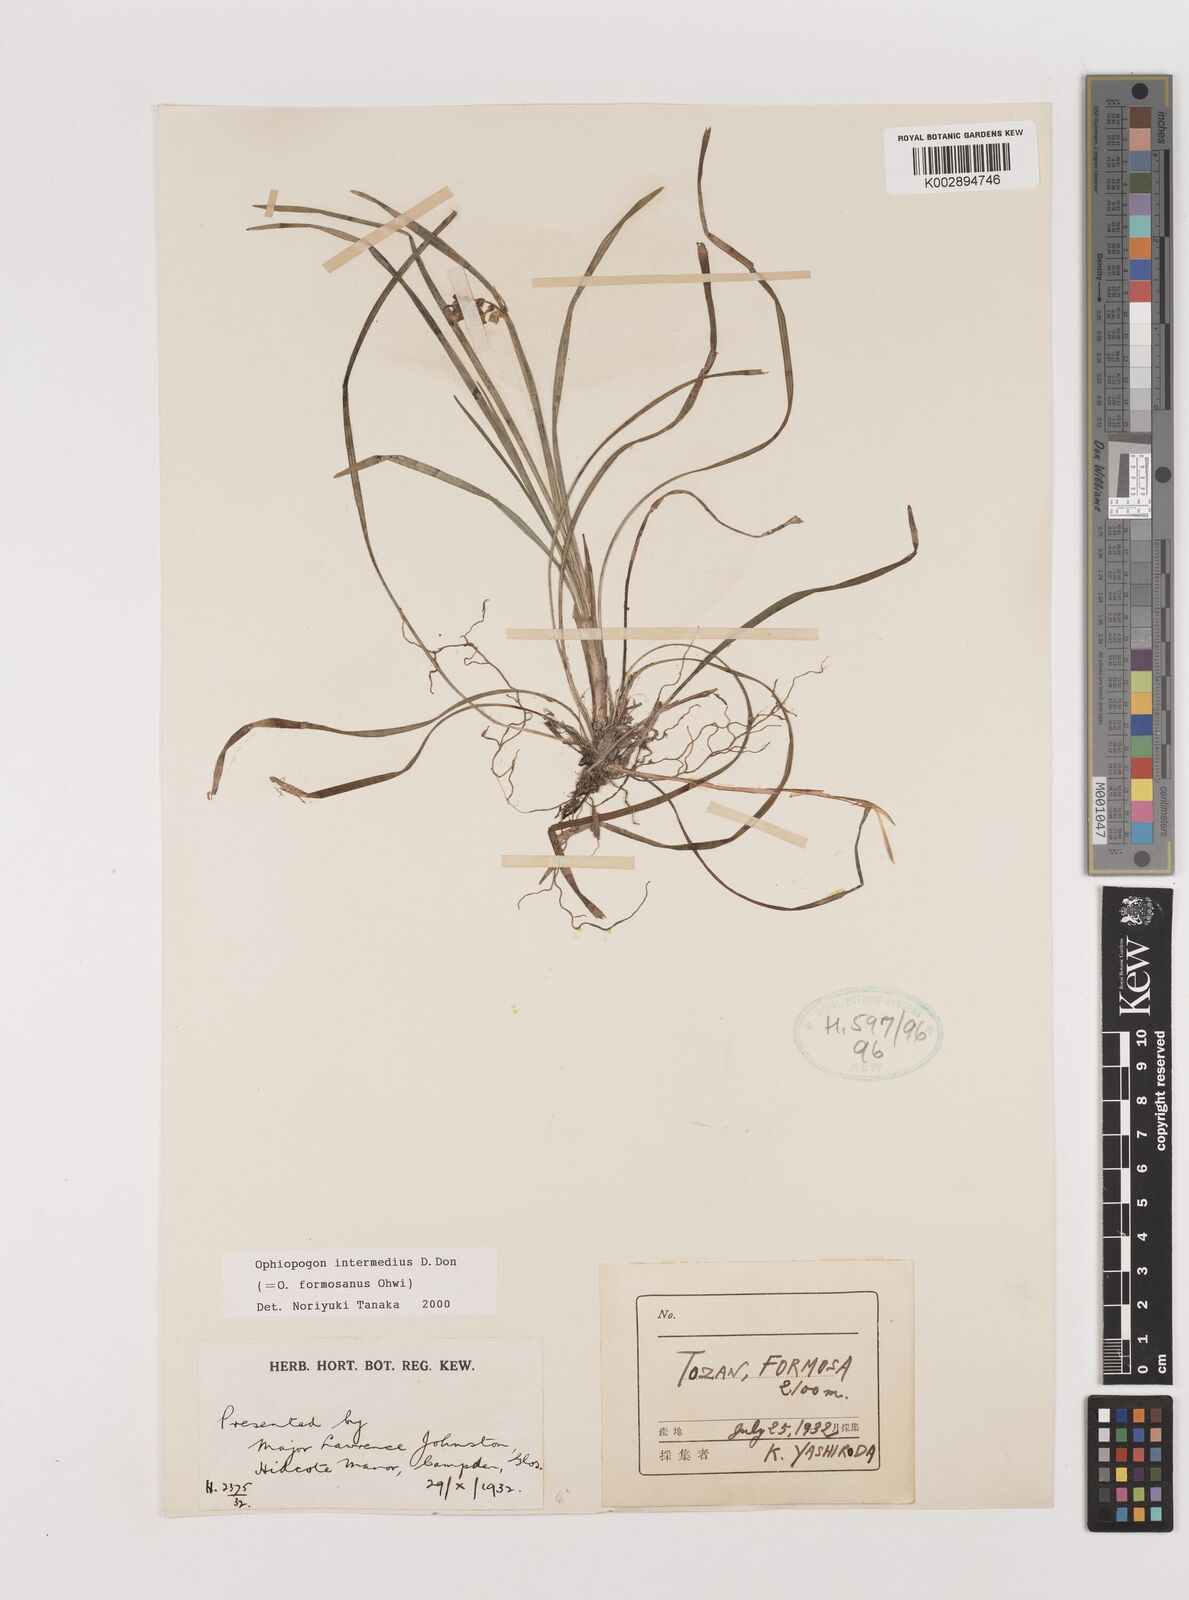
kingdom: Plantae
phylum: Tracheophyta
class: Liliopsida
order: Asparagales
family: Asparagaceae
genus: Ophiopogon
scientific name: Ophiopogon intermedius
